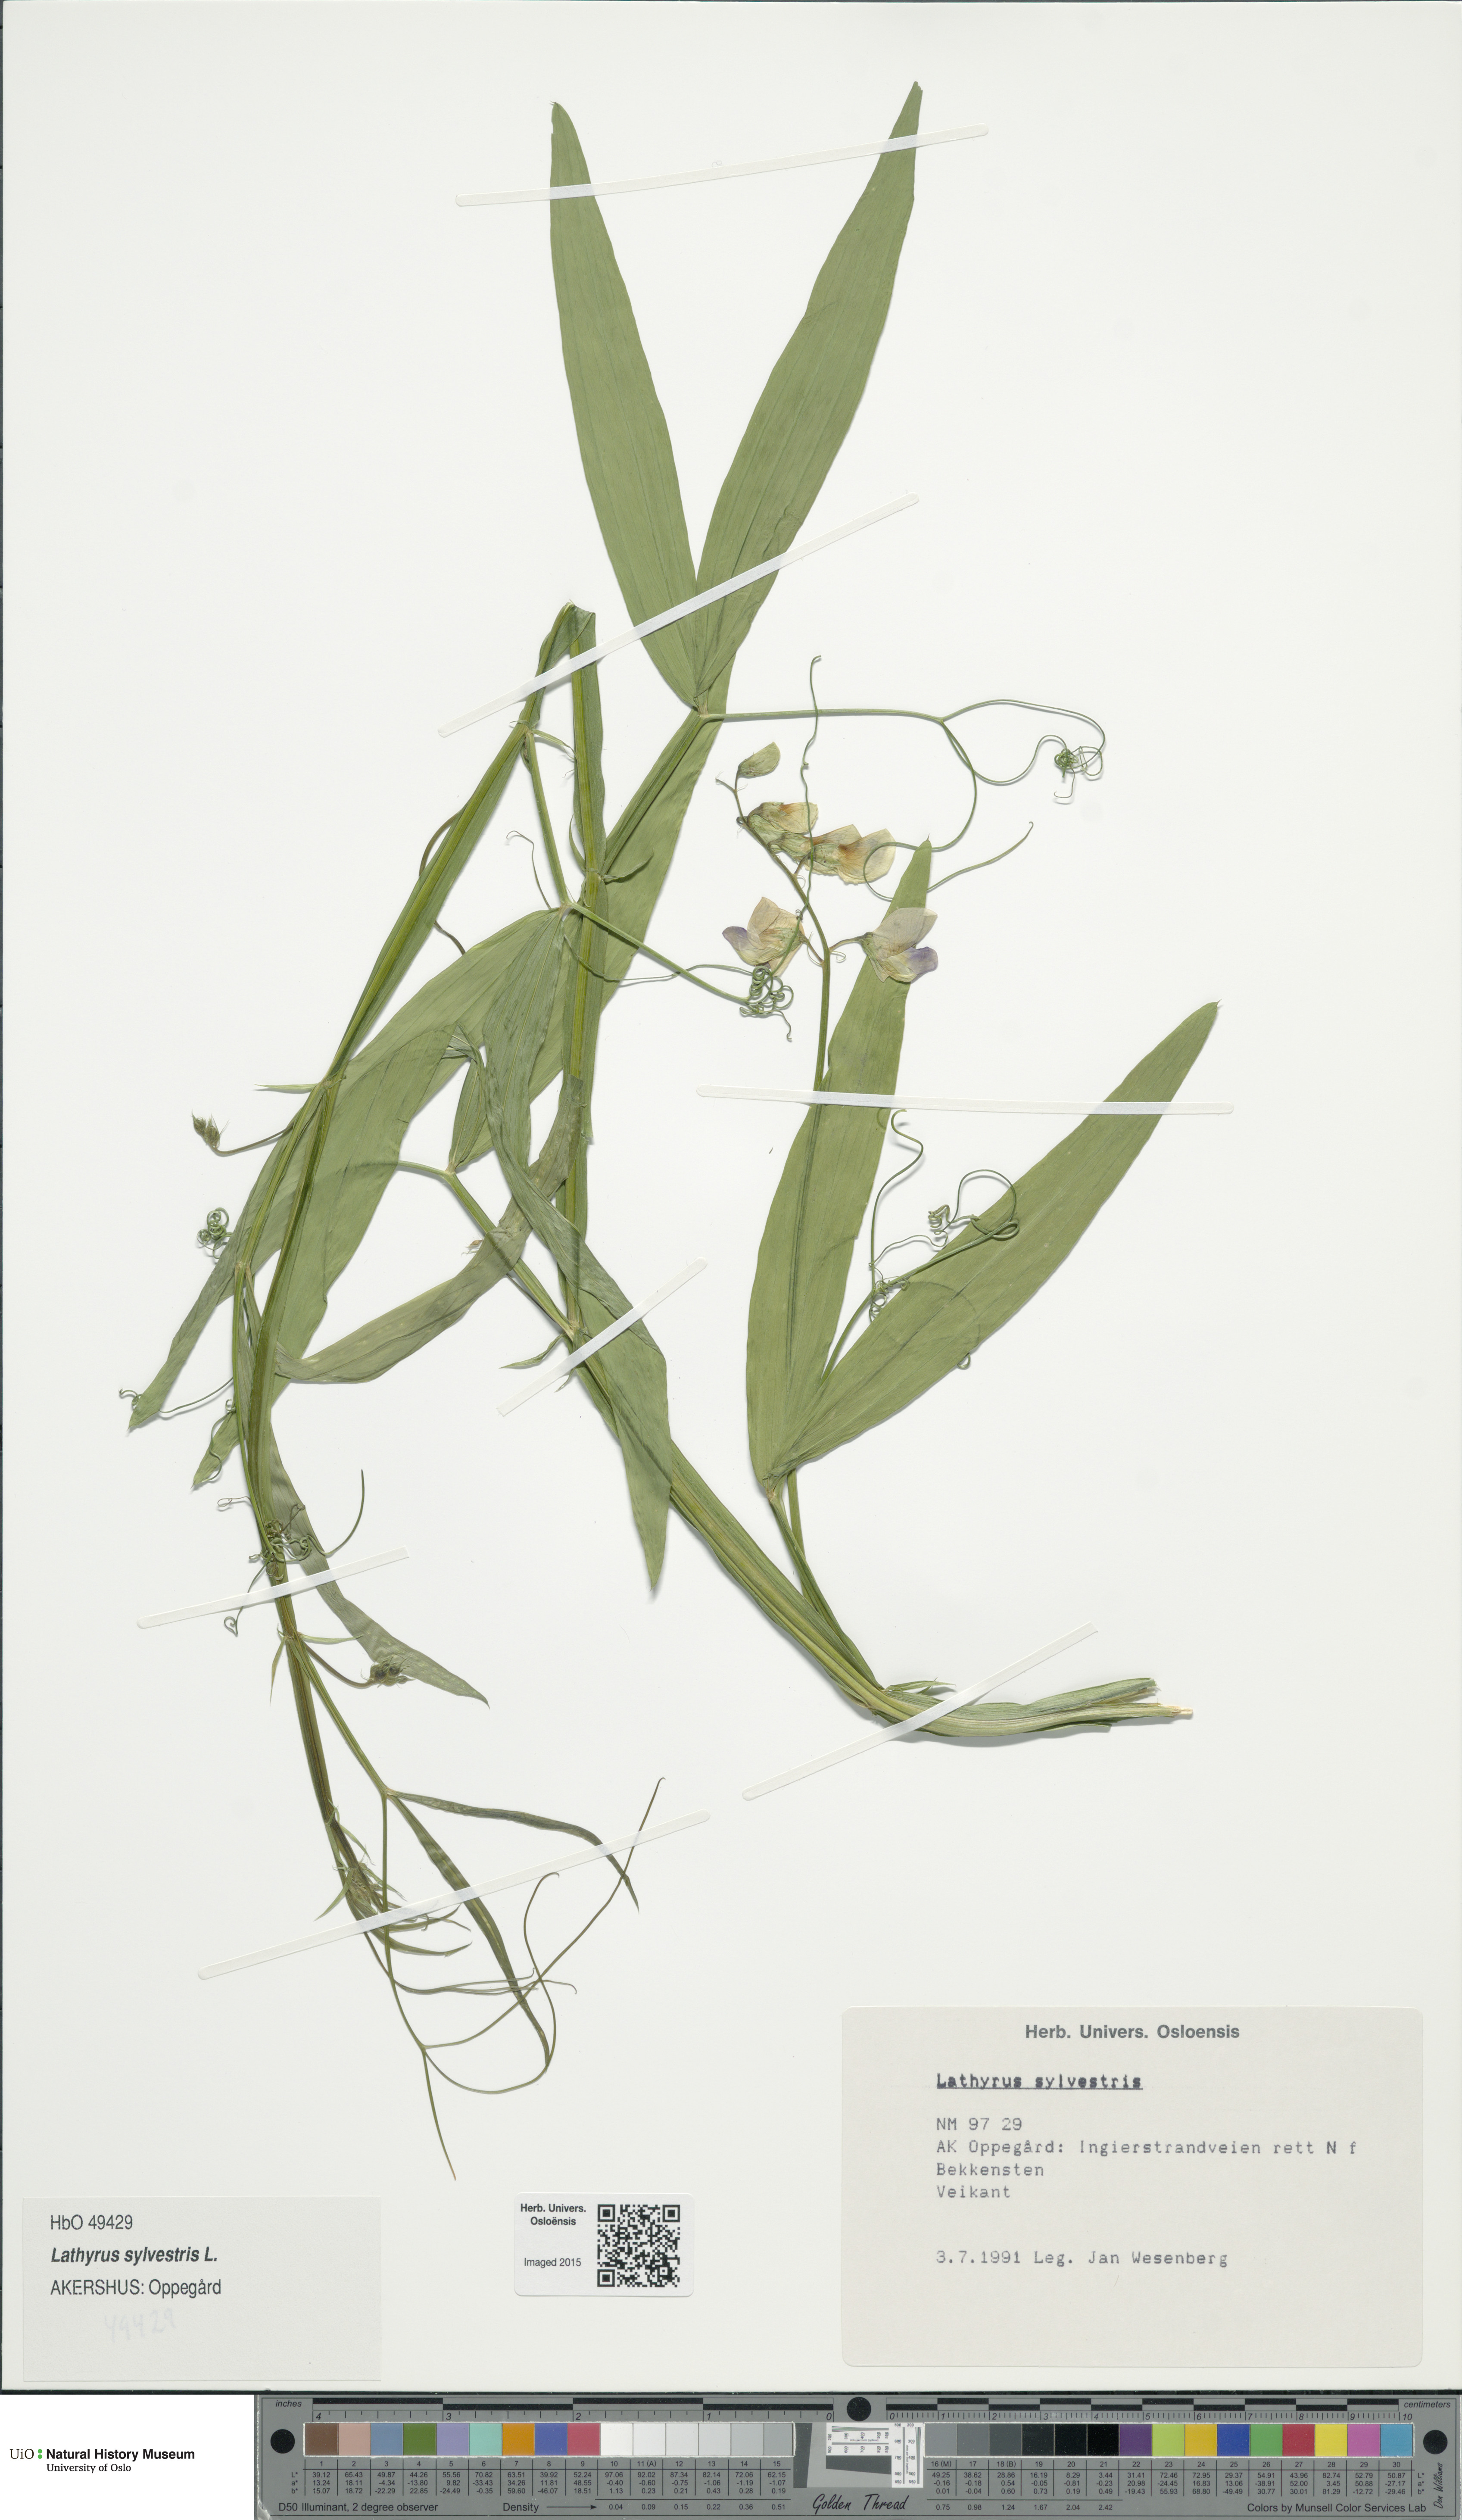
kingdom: Plantae
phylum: Tracheophyta
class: Magnoliopsida
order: Fabales
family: Fabaceae
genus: Lathyrus
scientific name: Lathyrus sylvestris
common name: Flat pea
